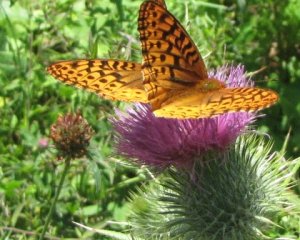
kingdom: Animalia
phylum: Arthropoda
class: Insecta
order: Lepidoptera
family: Nymphalidae
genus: Speyeria
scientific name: Speyeria cybele
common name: Great Spangled Fritillary
